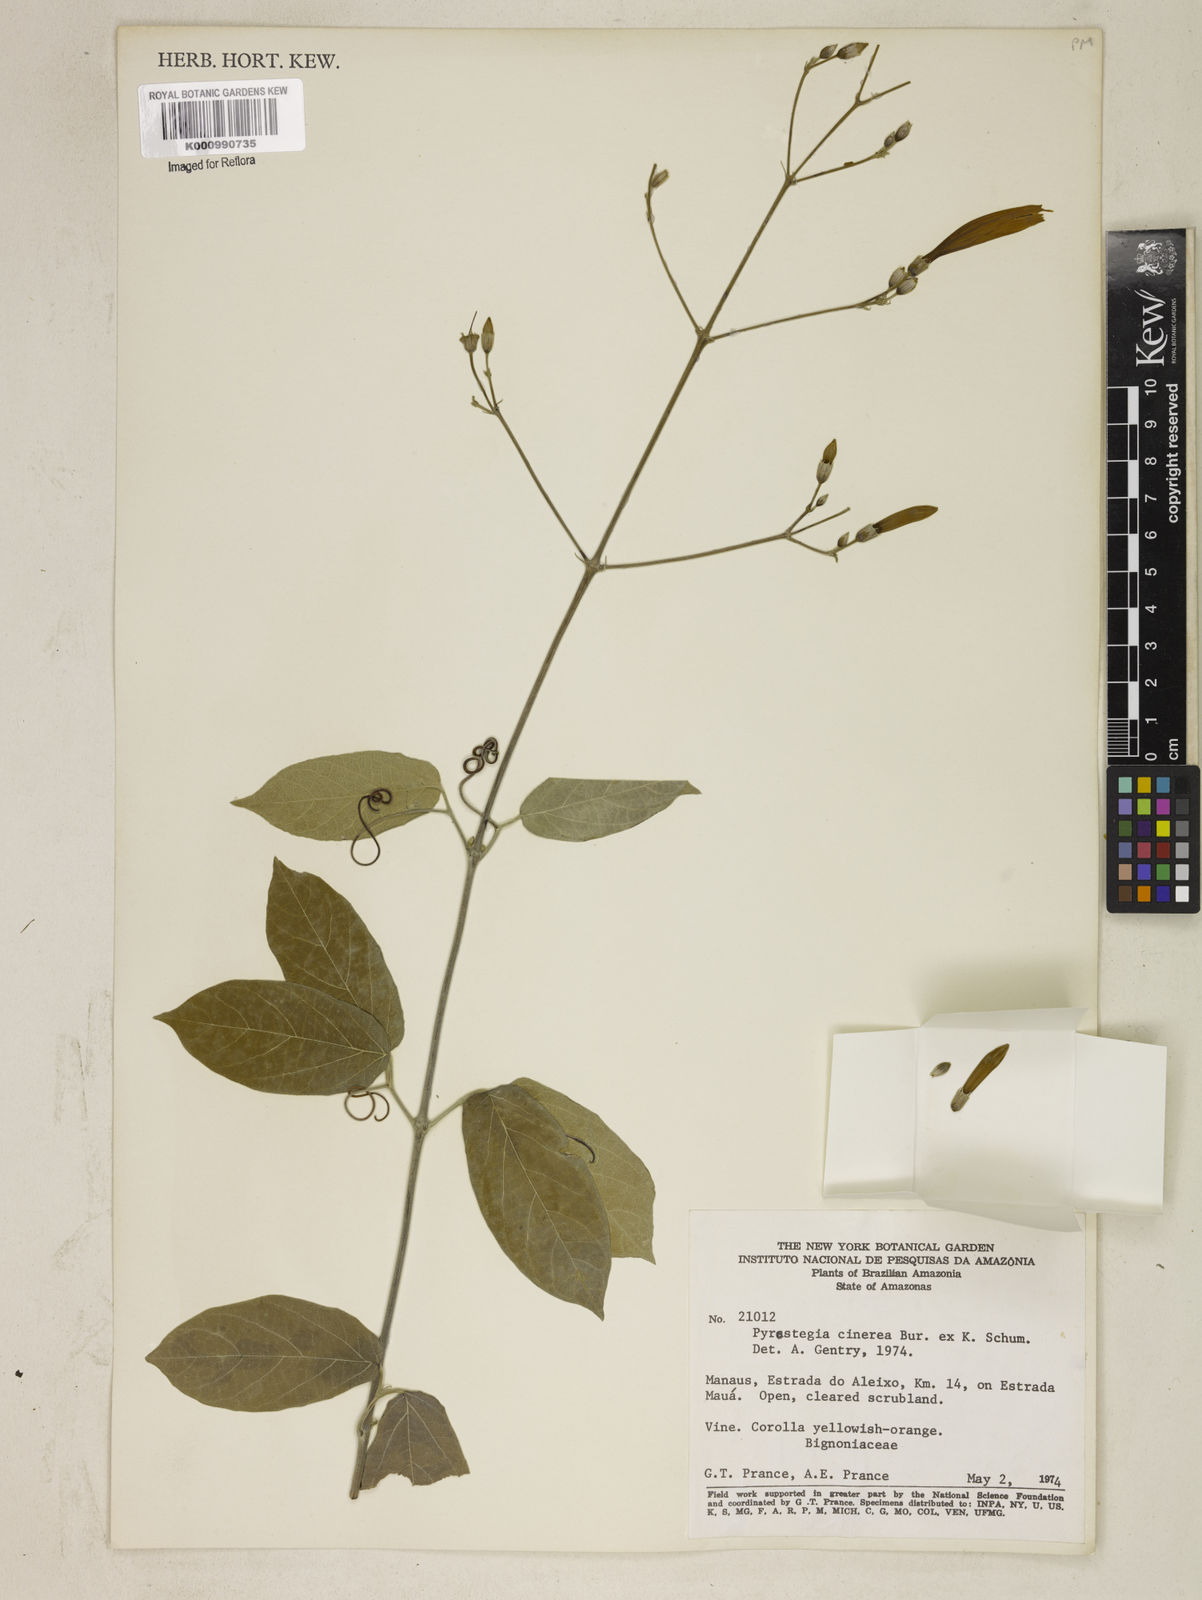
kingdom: Plantae
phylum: Tracheophyta
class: Magnoliopsida
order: Lamiales
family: Bignoniaceae
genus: Pyrostegia
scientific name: Pyrostegia
